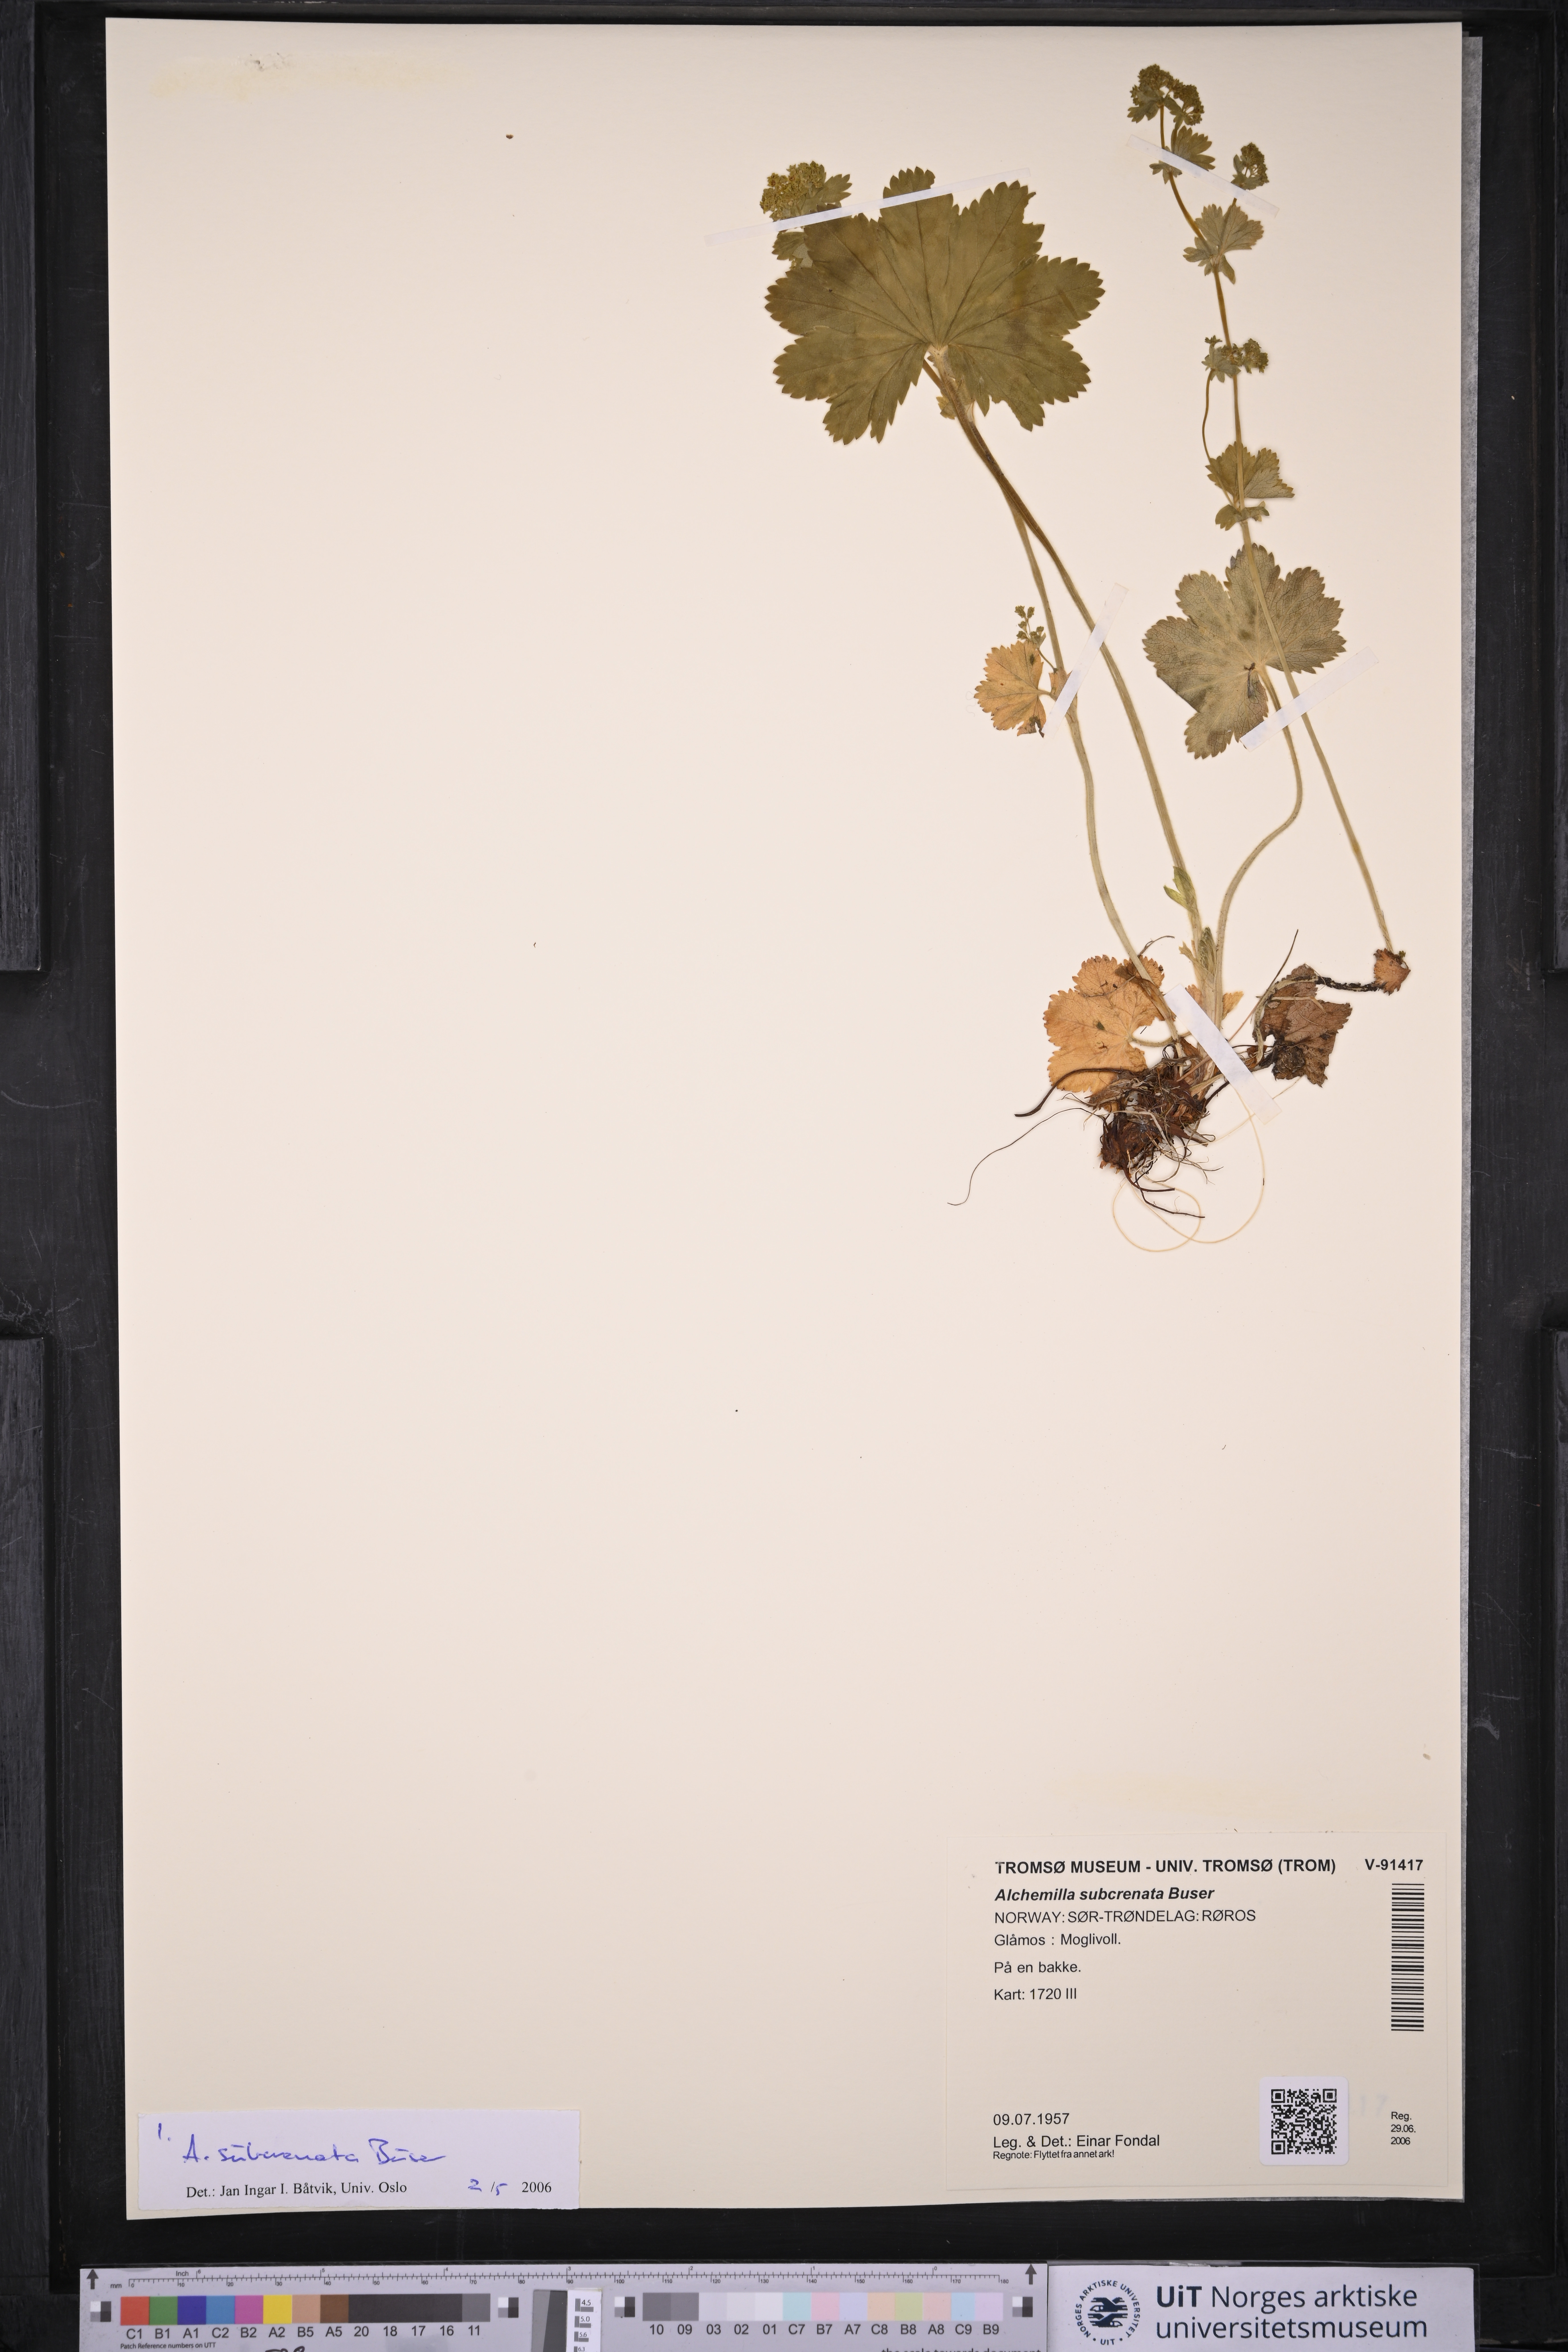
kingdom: Plantae
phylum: Tracheophyta
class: Magnoliopsida
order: Rosales
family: Rosaceae
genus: Alchemilla
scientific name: Alchemilla subcrenata
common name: Broadtooth lady's mantle
